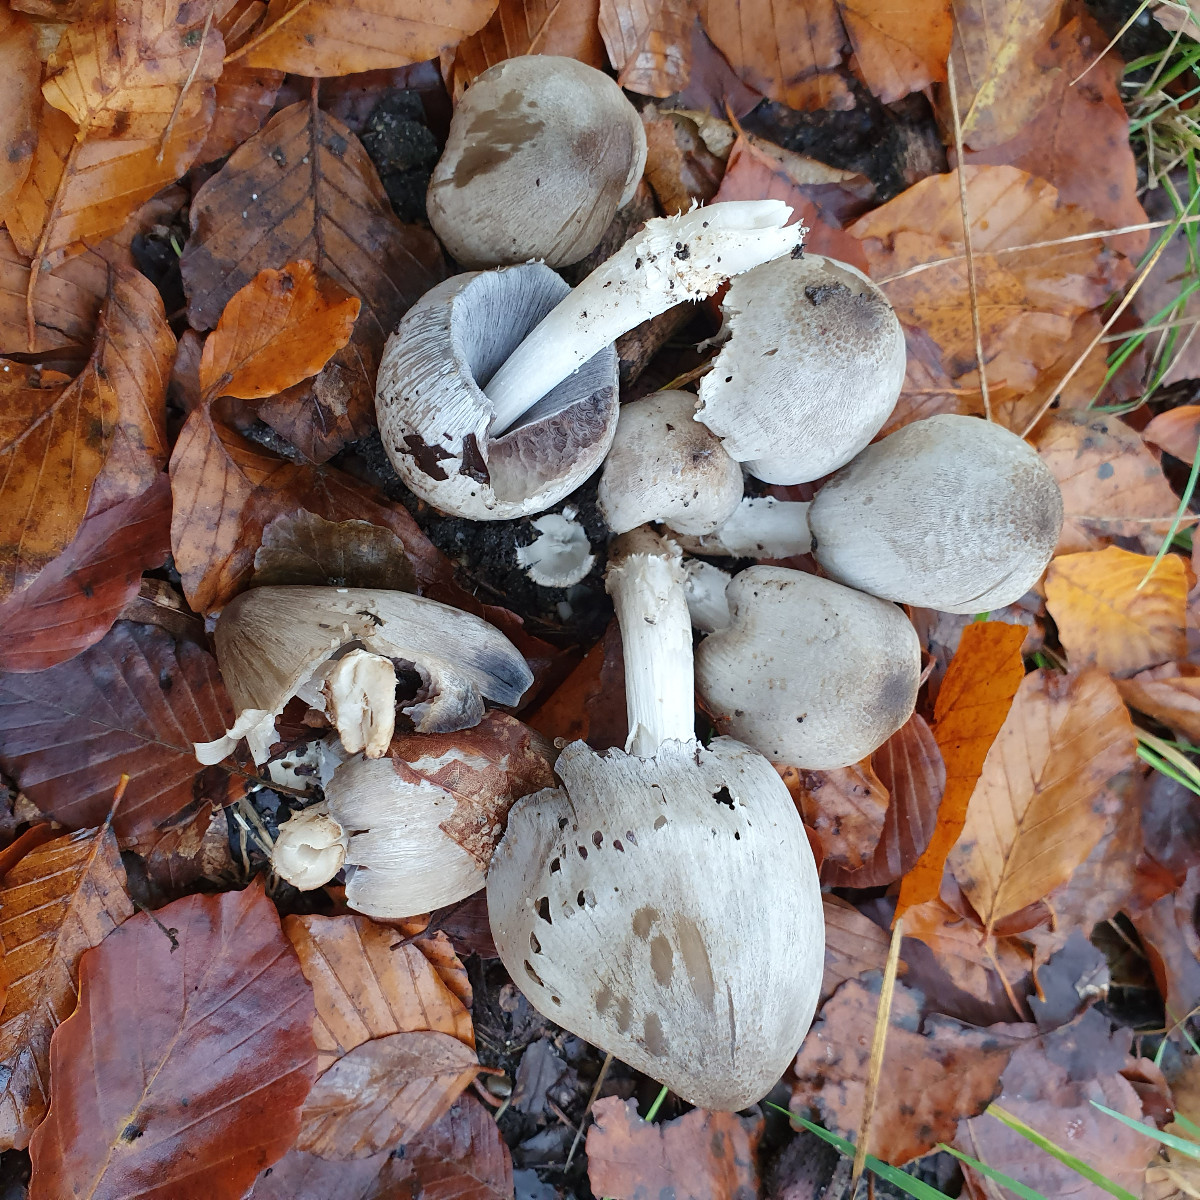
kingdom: Fungi
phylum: Basidiomycota
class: Agaricomycetes
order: Agaricales
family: Psathyrellaceae
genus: Coprinopsis
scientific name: Coprinopsis atramentaria
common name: almindelig blækhat
